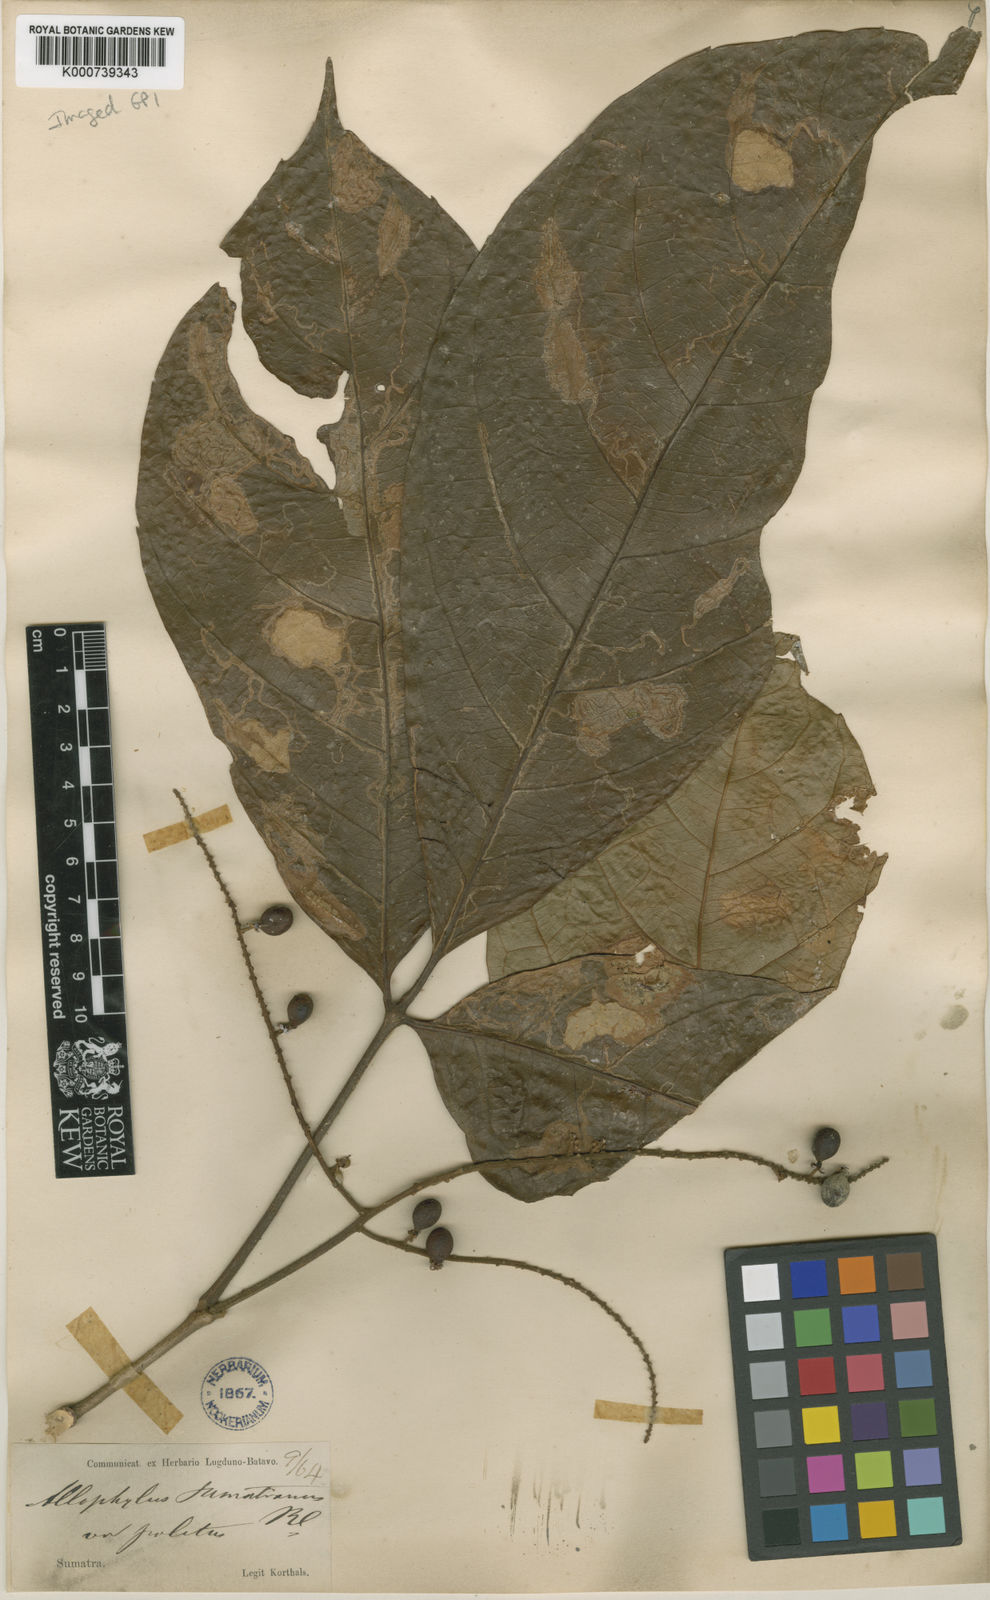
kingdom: Plantae
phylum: Tracheophyta
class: Magnoliopsida
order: Sapindales
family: Sapindaceae
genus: Allophylus
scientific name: Allophylus sumatranus
